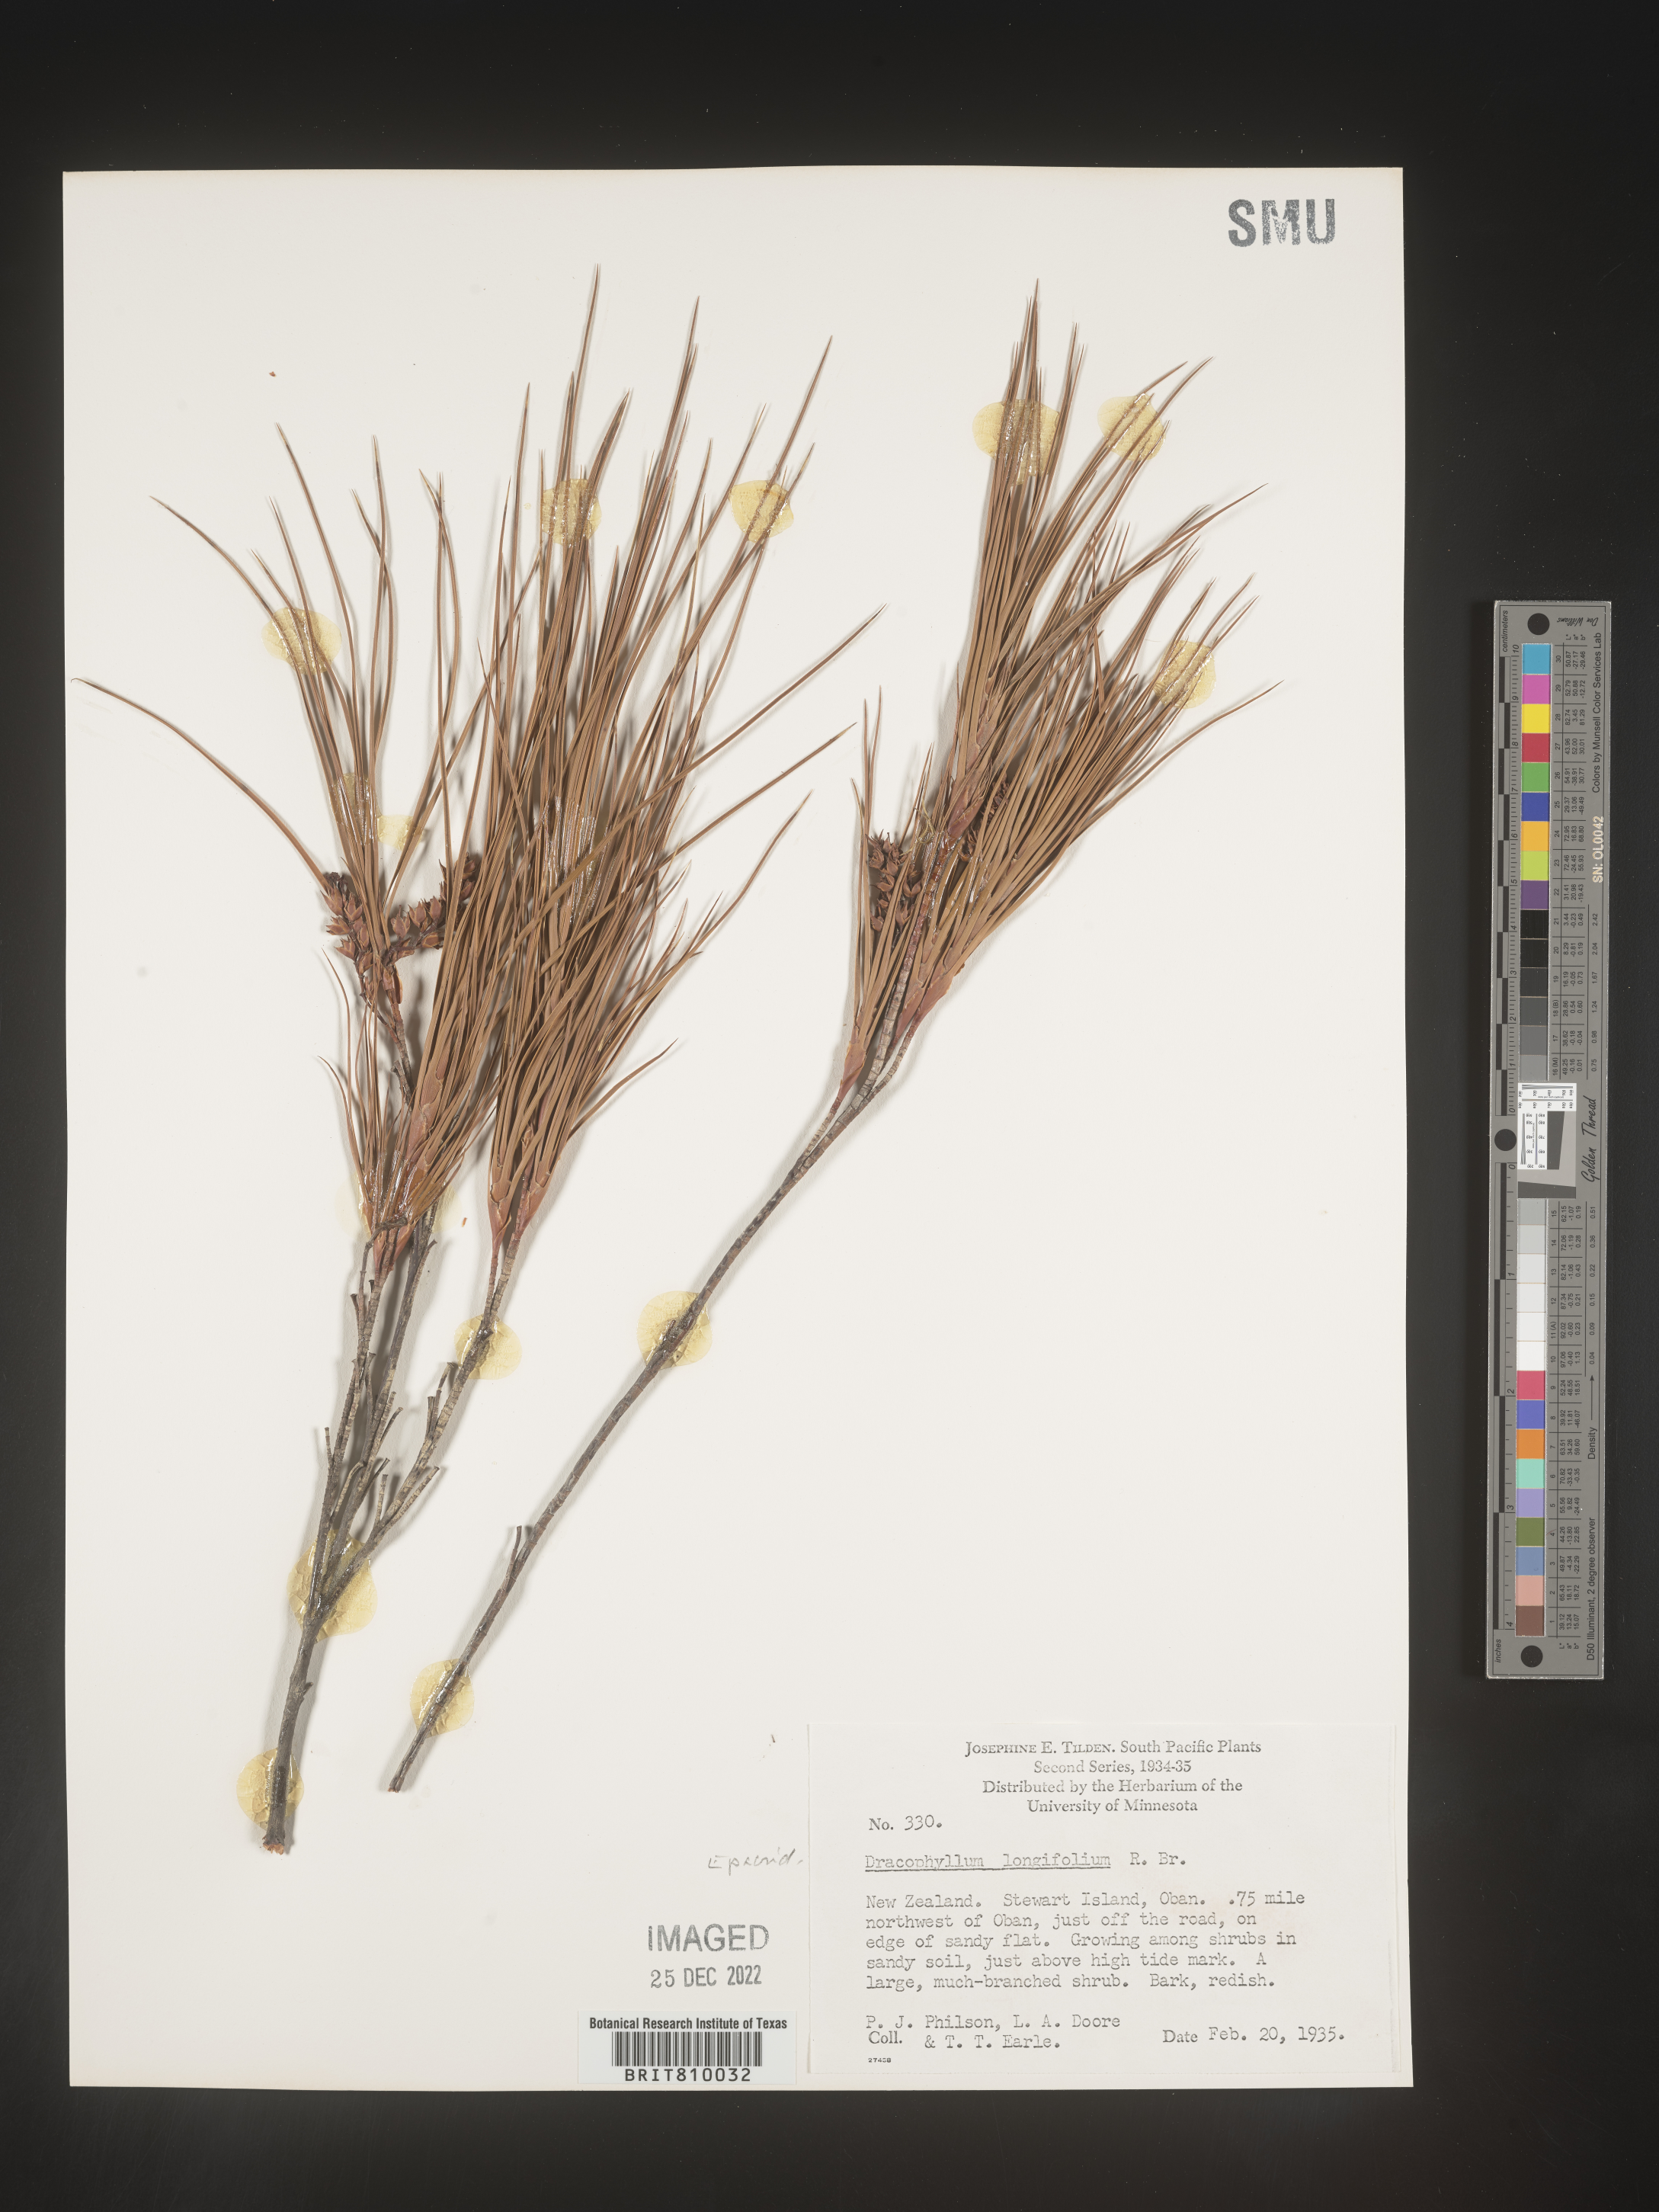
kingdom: Plantae
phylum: Tracheophyta
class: Magnoliopsida
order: Ericales
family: Ericaceae
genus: Dracophyllum
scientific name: Dracophyllum
